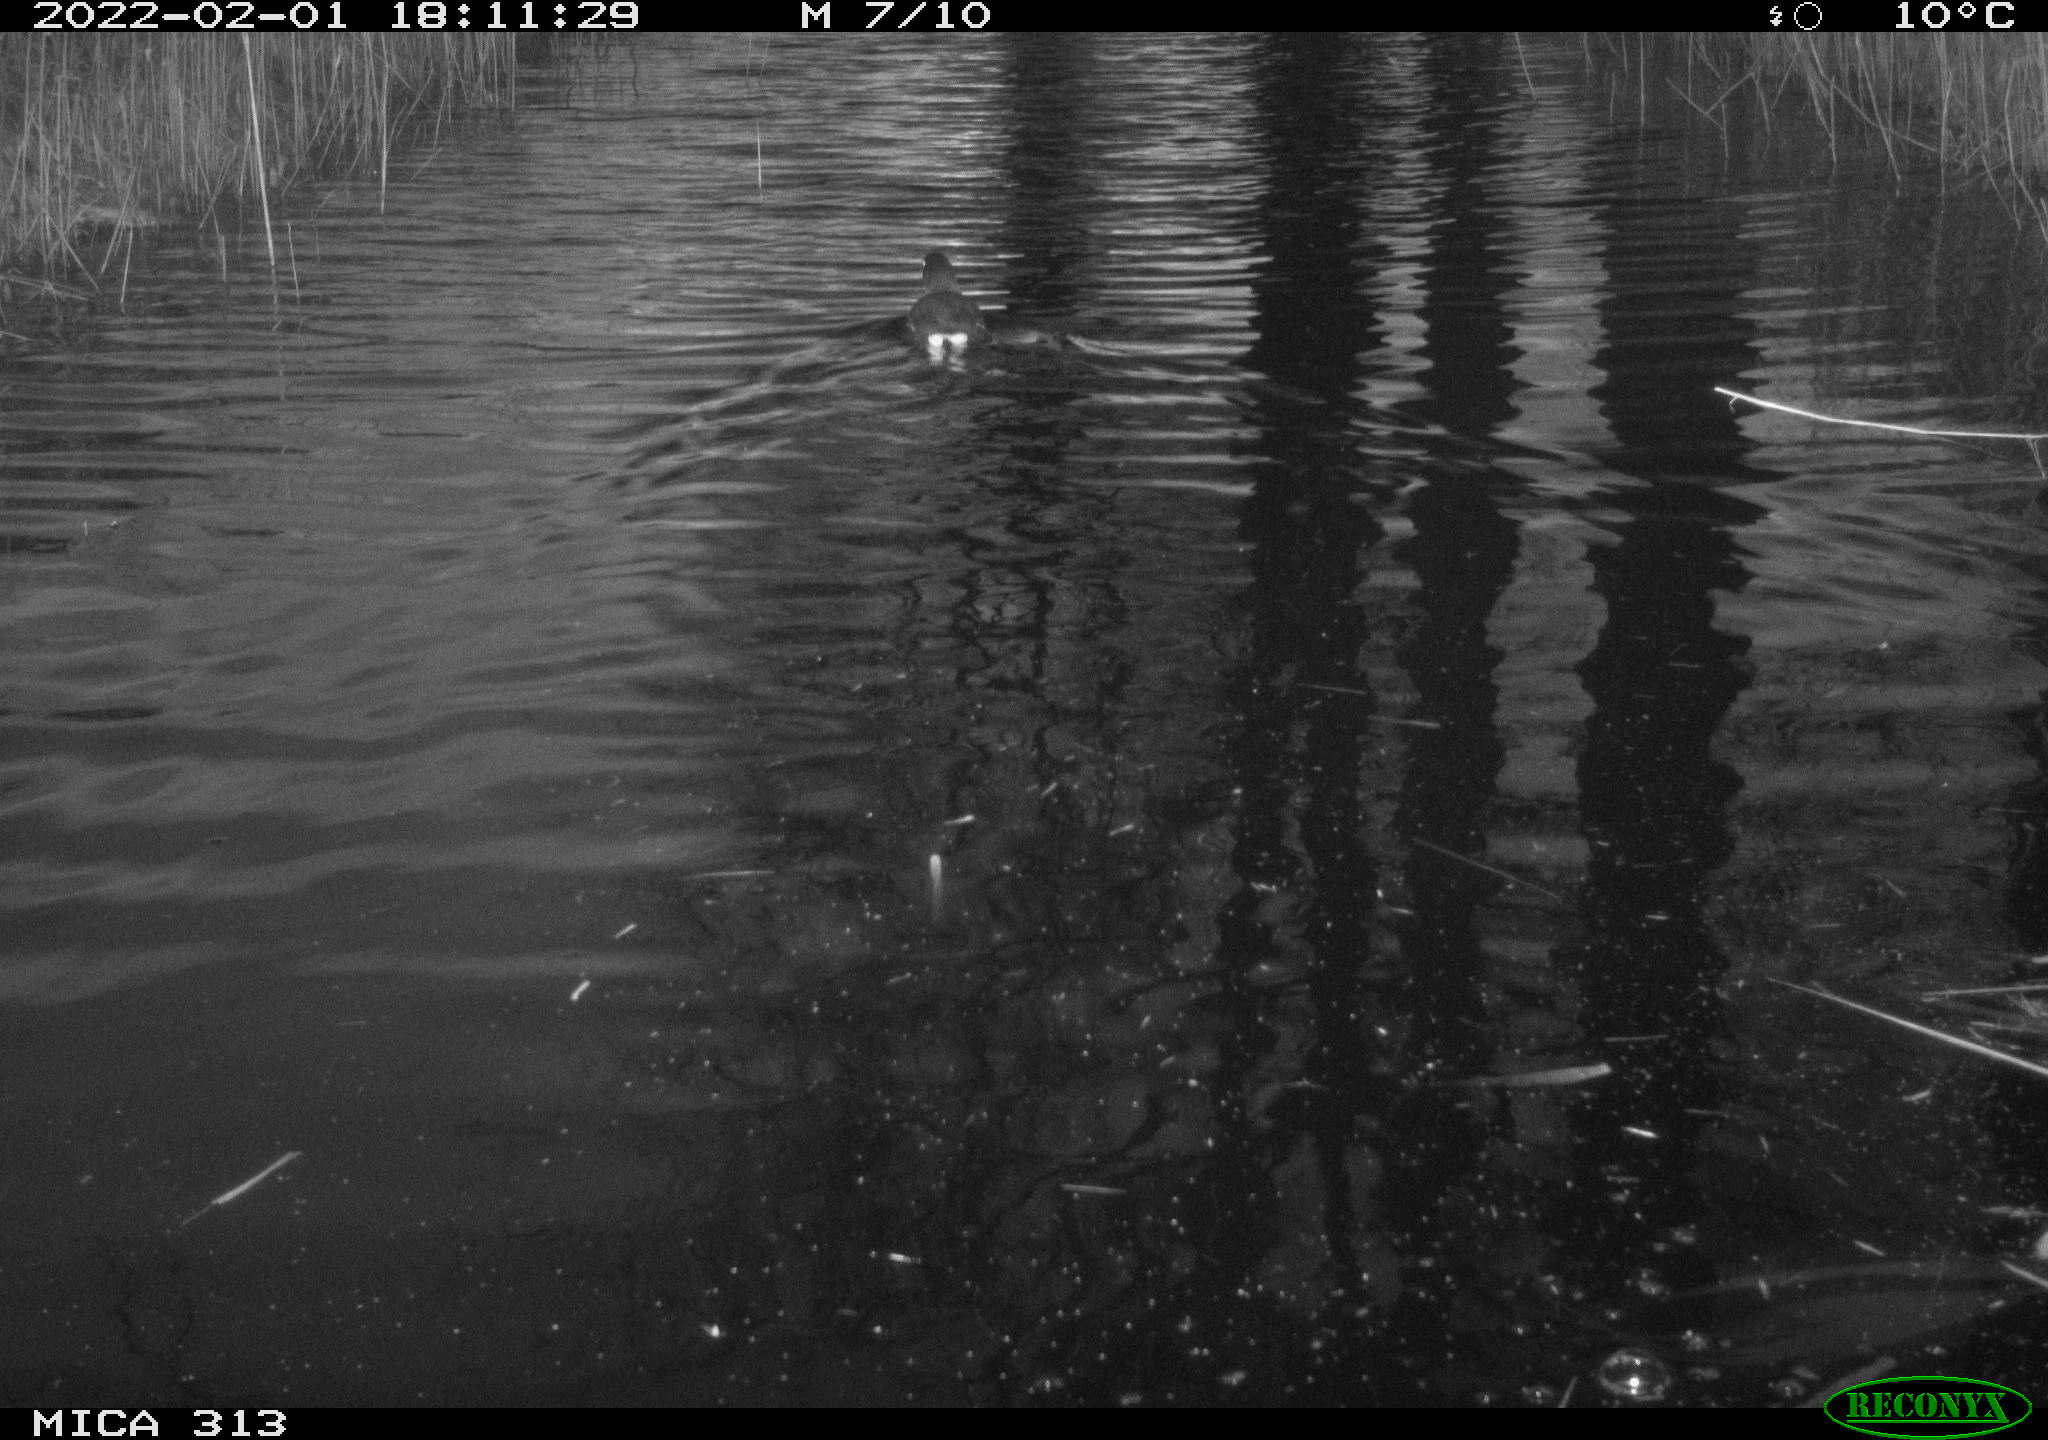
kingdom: Animalia
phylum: Chordata
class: Aves
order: Gruiformes
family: Rallidae
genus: Gallinula
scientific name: Gallinula chloropus
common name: Common moorhen
